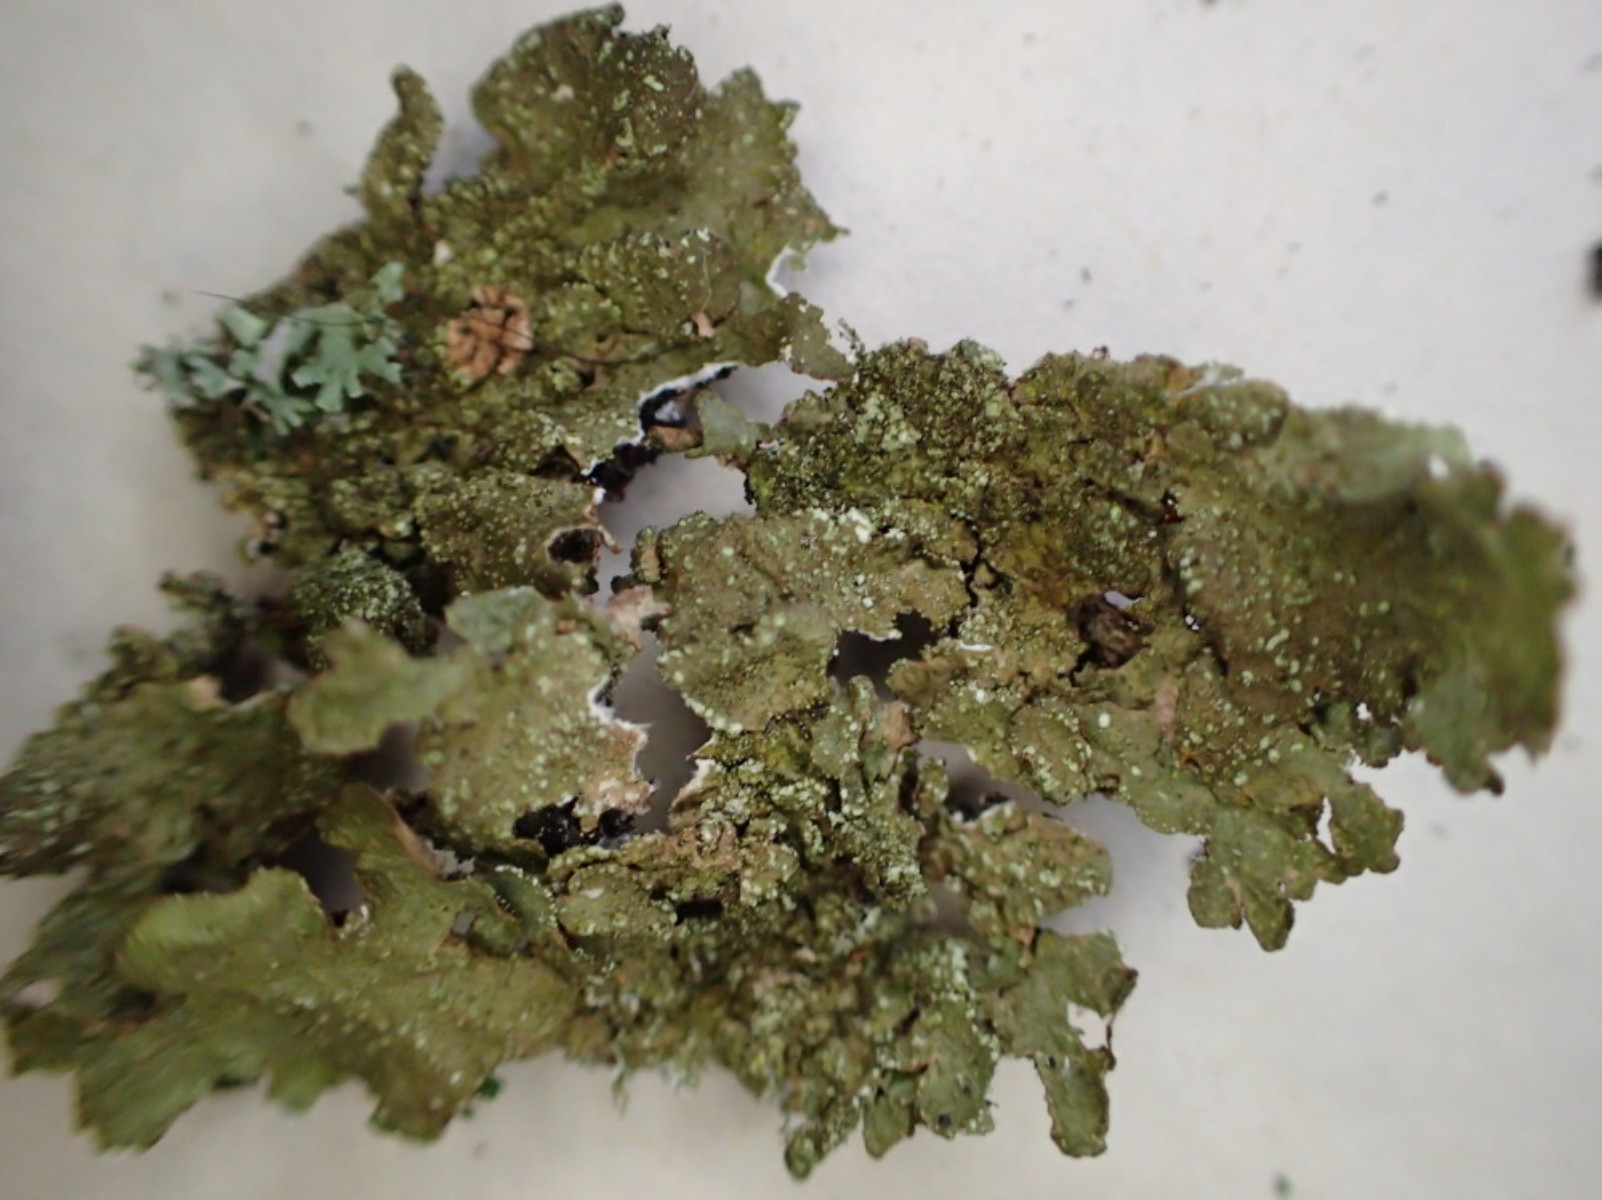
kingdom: Fungi
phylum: Ascomycota
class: Lecanoromycetes
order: Lecanorales
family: Parmeliaceae
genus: Melanelixia
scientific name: Melanelixia subaurifera
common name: guldpudret skållav
